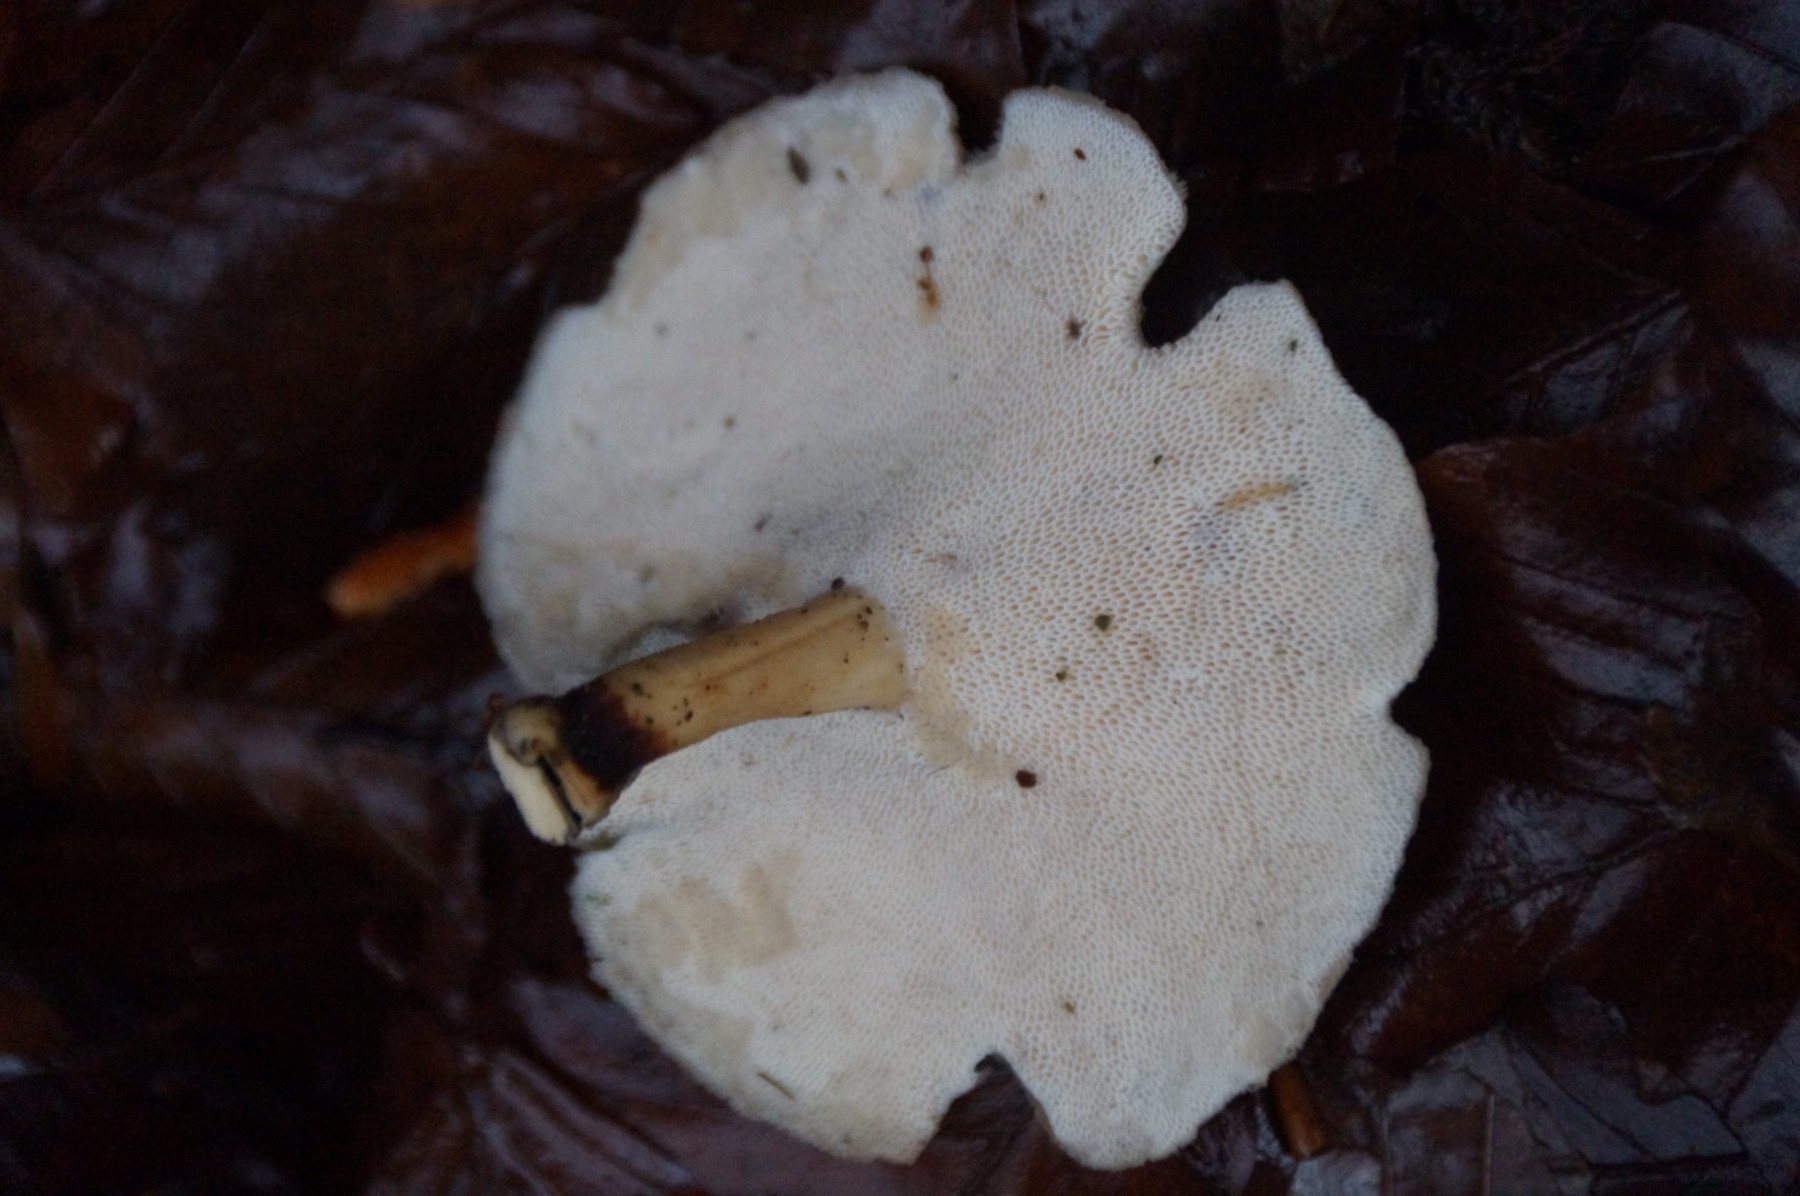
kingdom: Fungi
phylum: Basidiomycota
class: Agaricomycetes
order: Polyporales
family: Polyporaceae
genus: Lentinus
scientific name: Lentinus brumalis
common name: vinter-stilkporesvamp
